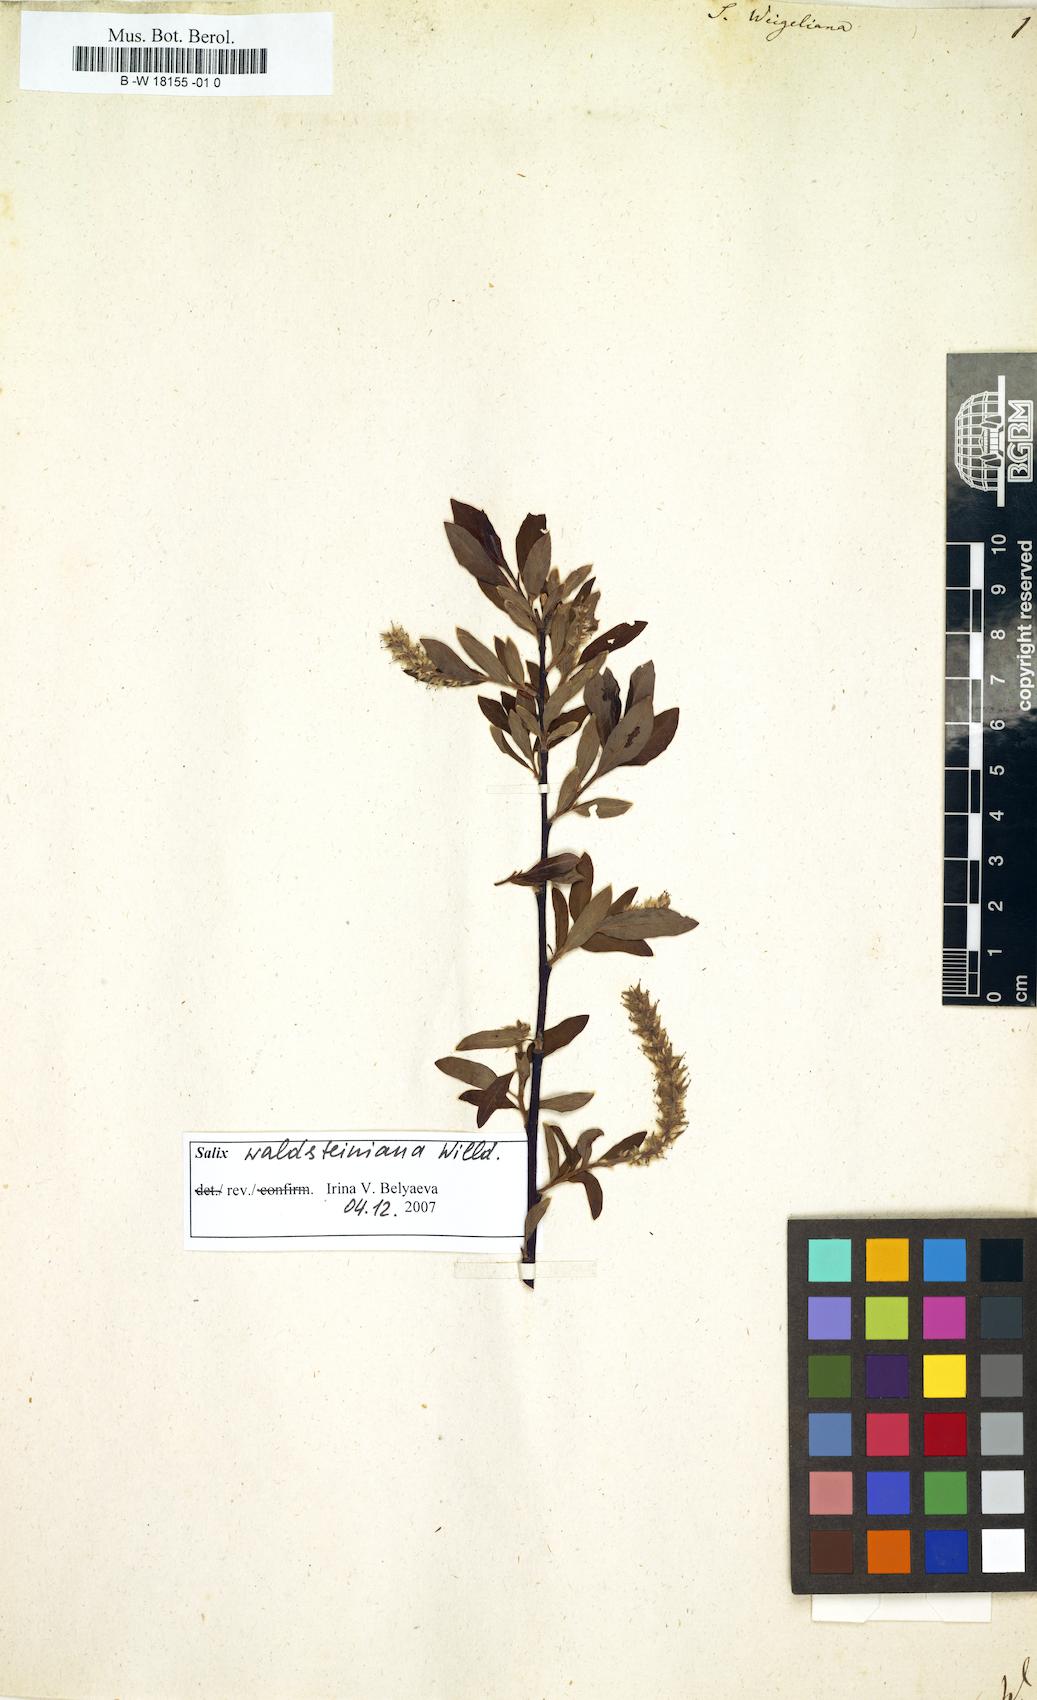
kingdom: Plantae
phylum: Tracheophyta
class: Magnoliopsida
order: Malpighiales
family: Salicaceae
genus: Salix
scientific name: Salix bicolor
